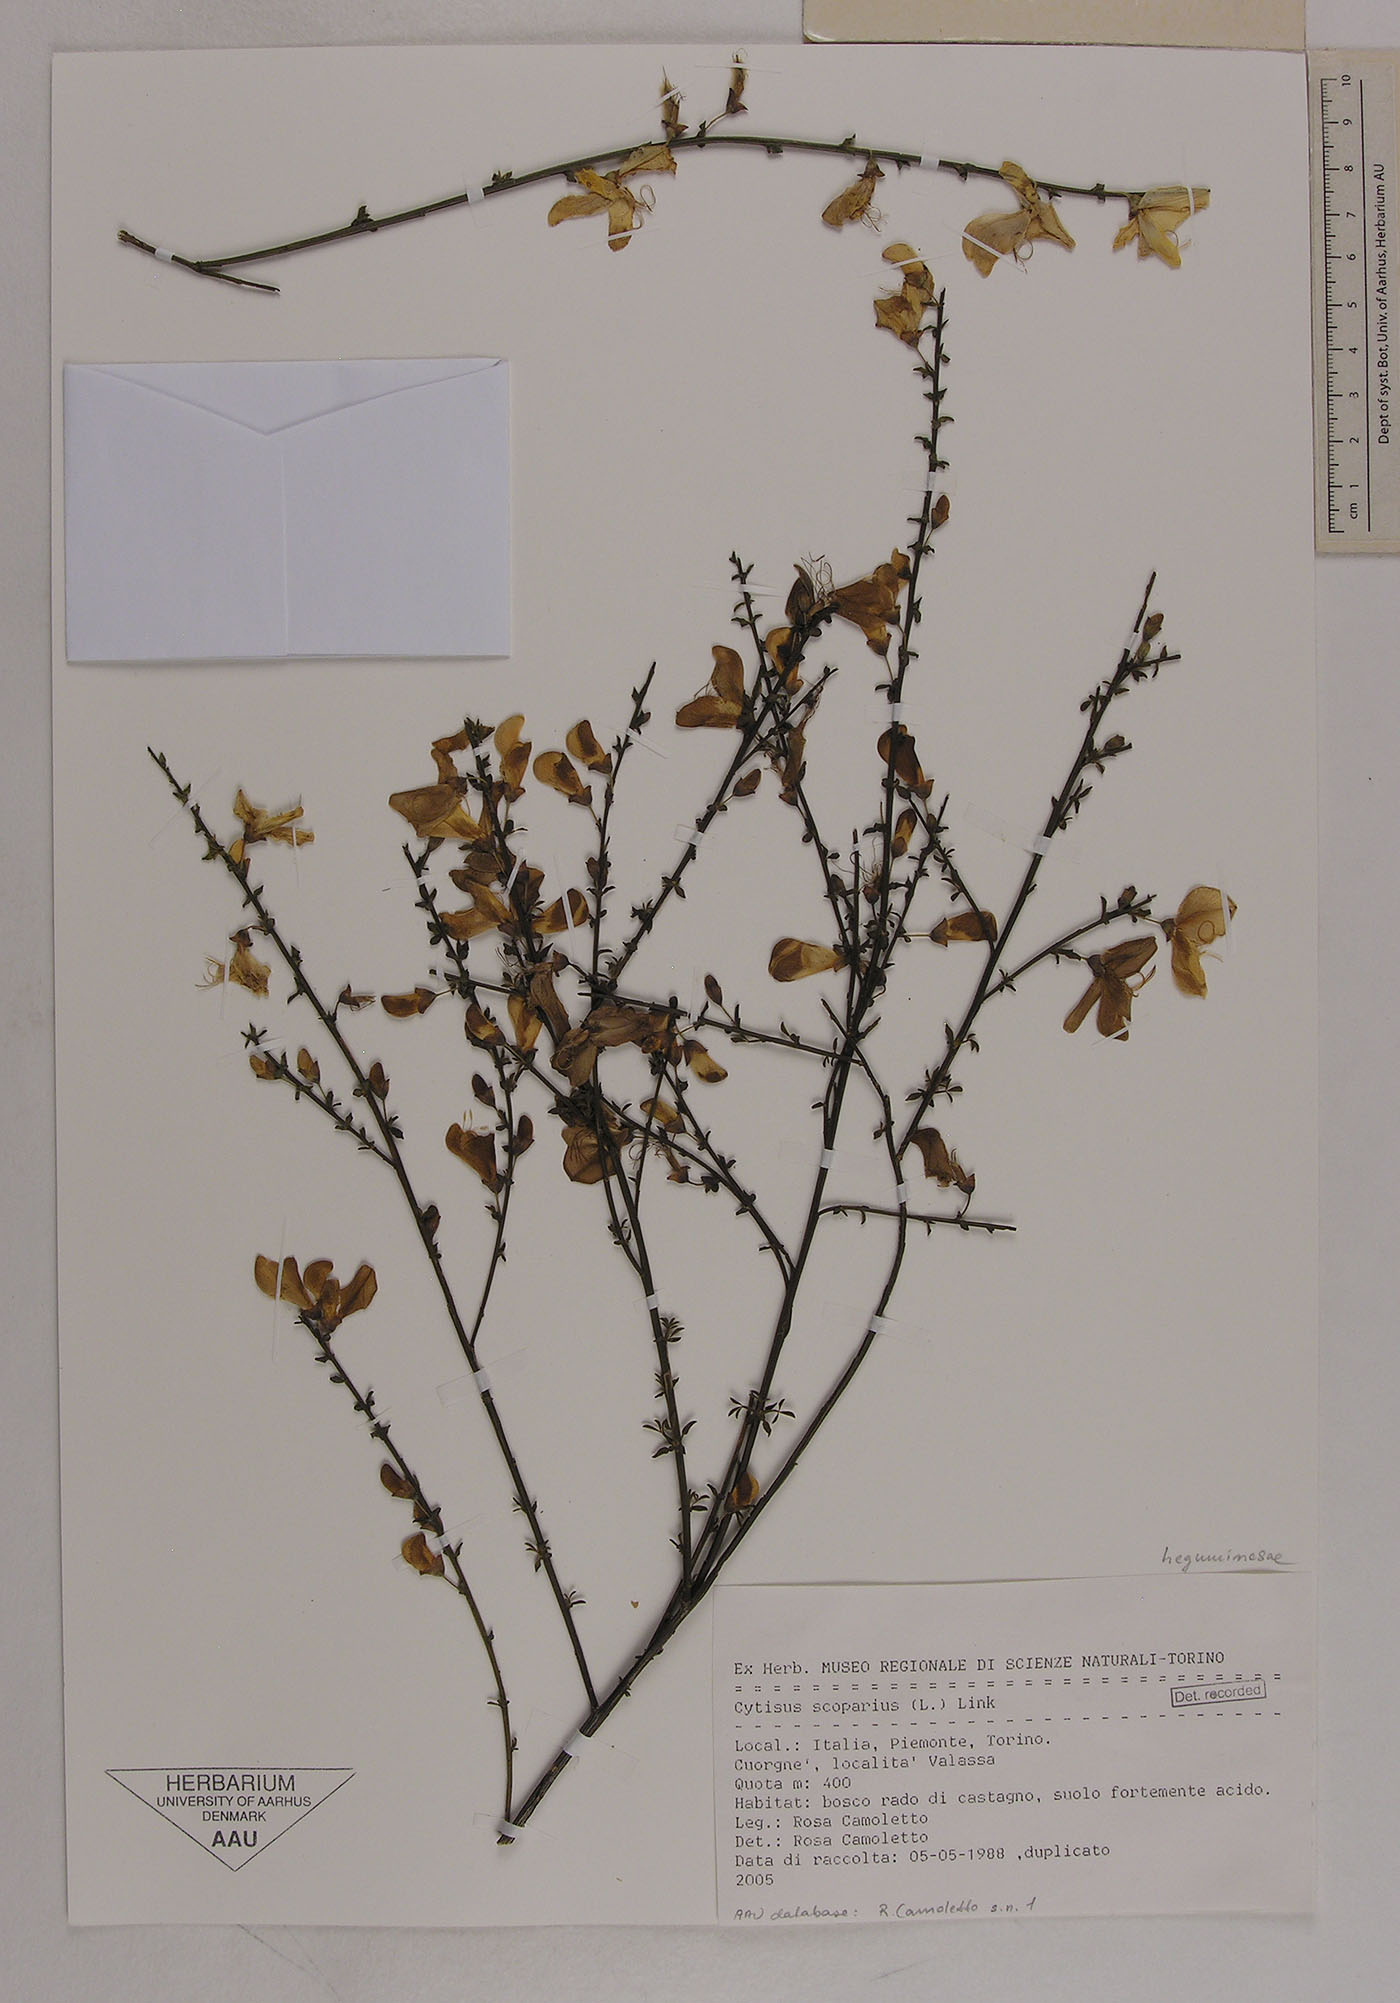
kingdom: Plantae
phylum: Tracheophyta
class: Magnoliopsida
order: Fabales
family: Fabaceae
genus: Cytisus
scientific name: Cytisus scoparius
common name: Scotch broom
